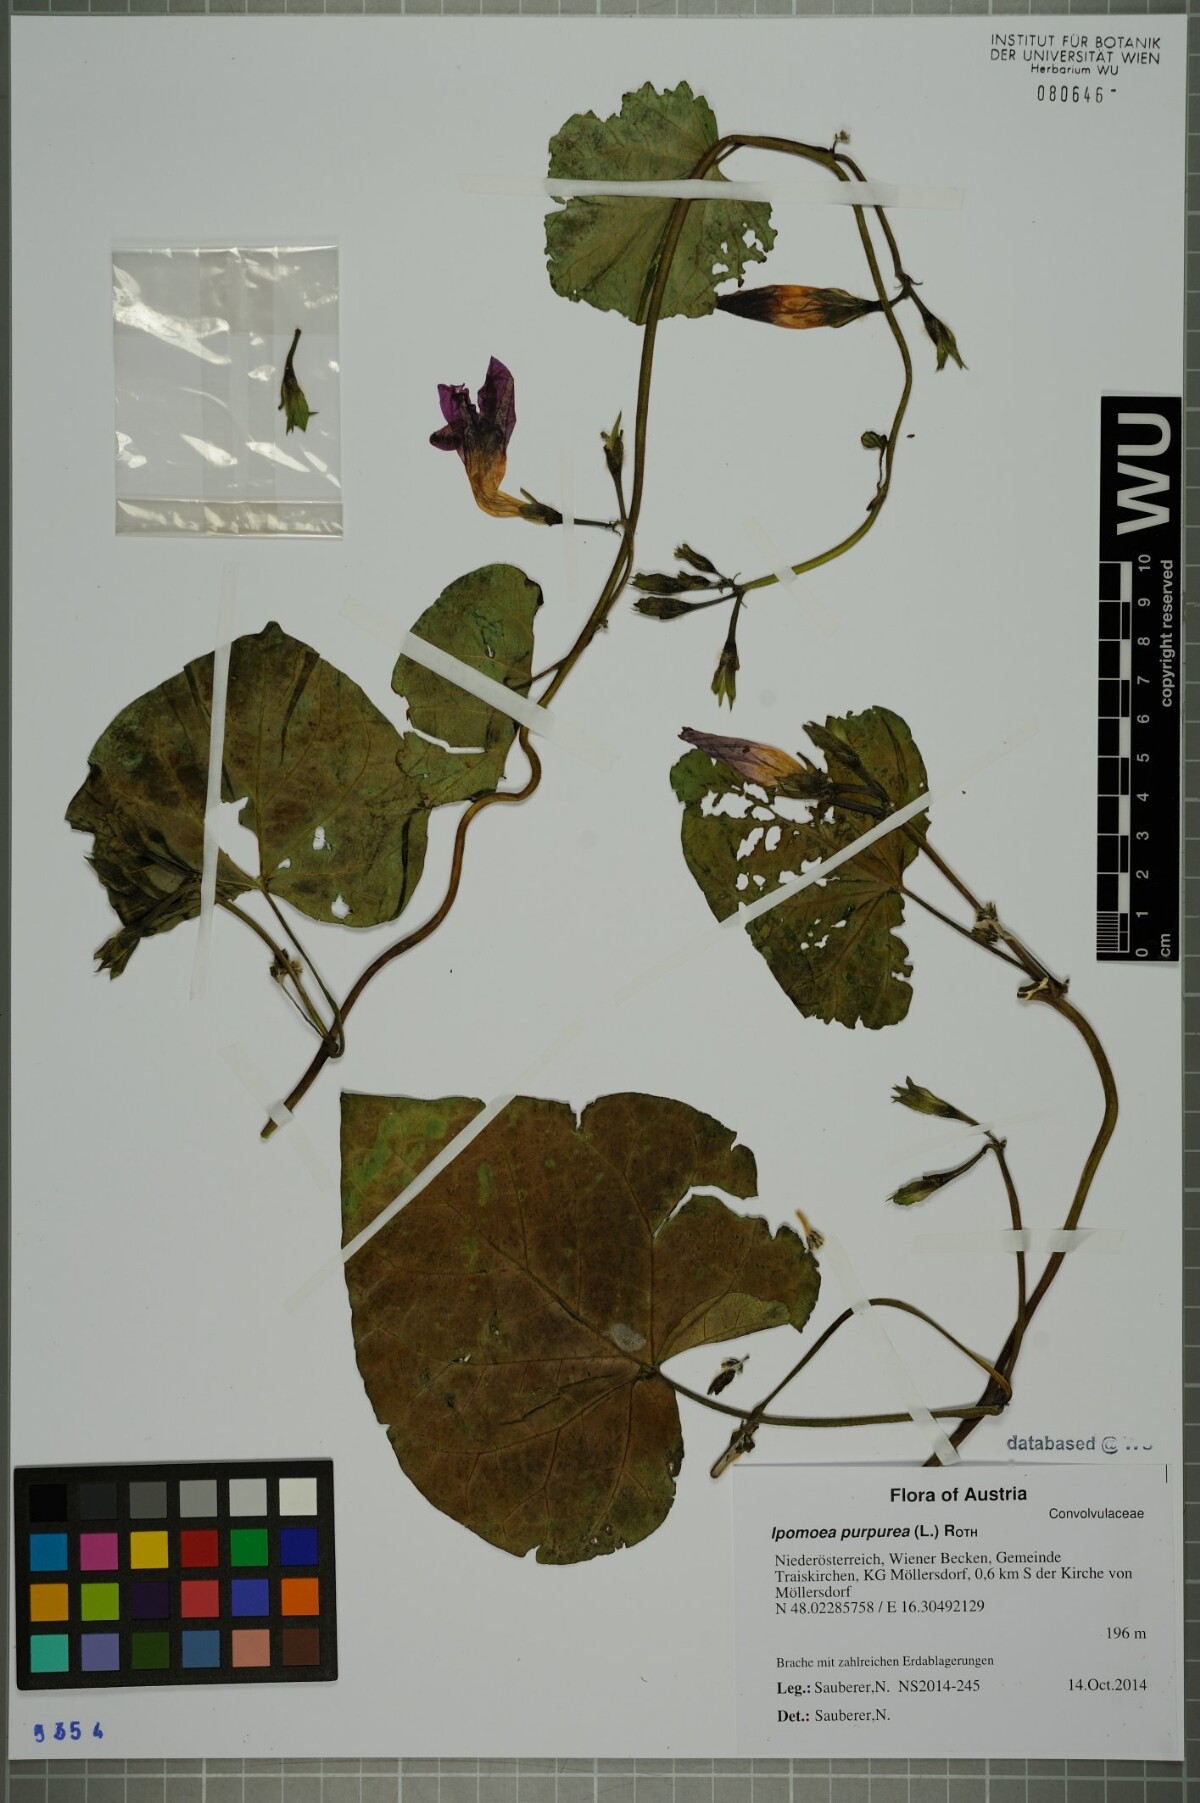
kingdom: Plantae
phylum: Tracheophyta
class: Magnoliopsida
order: Solanales
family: Convolvulaceae
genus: Ipomoea
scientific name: Ipomoea purpurea
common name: Common morning-glory
